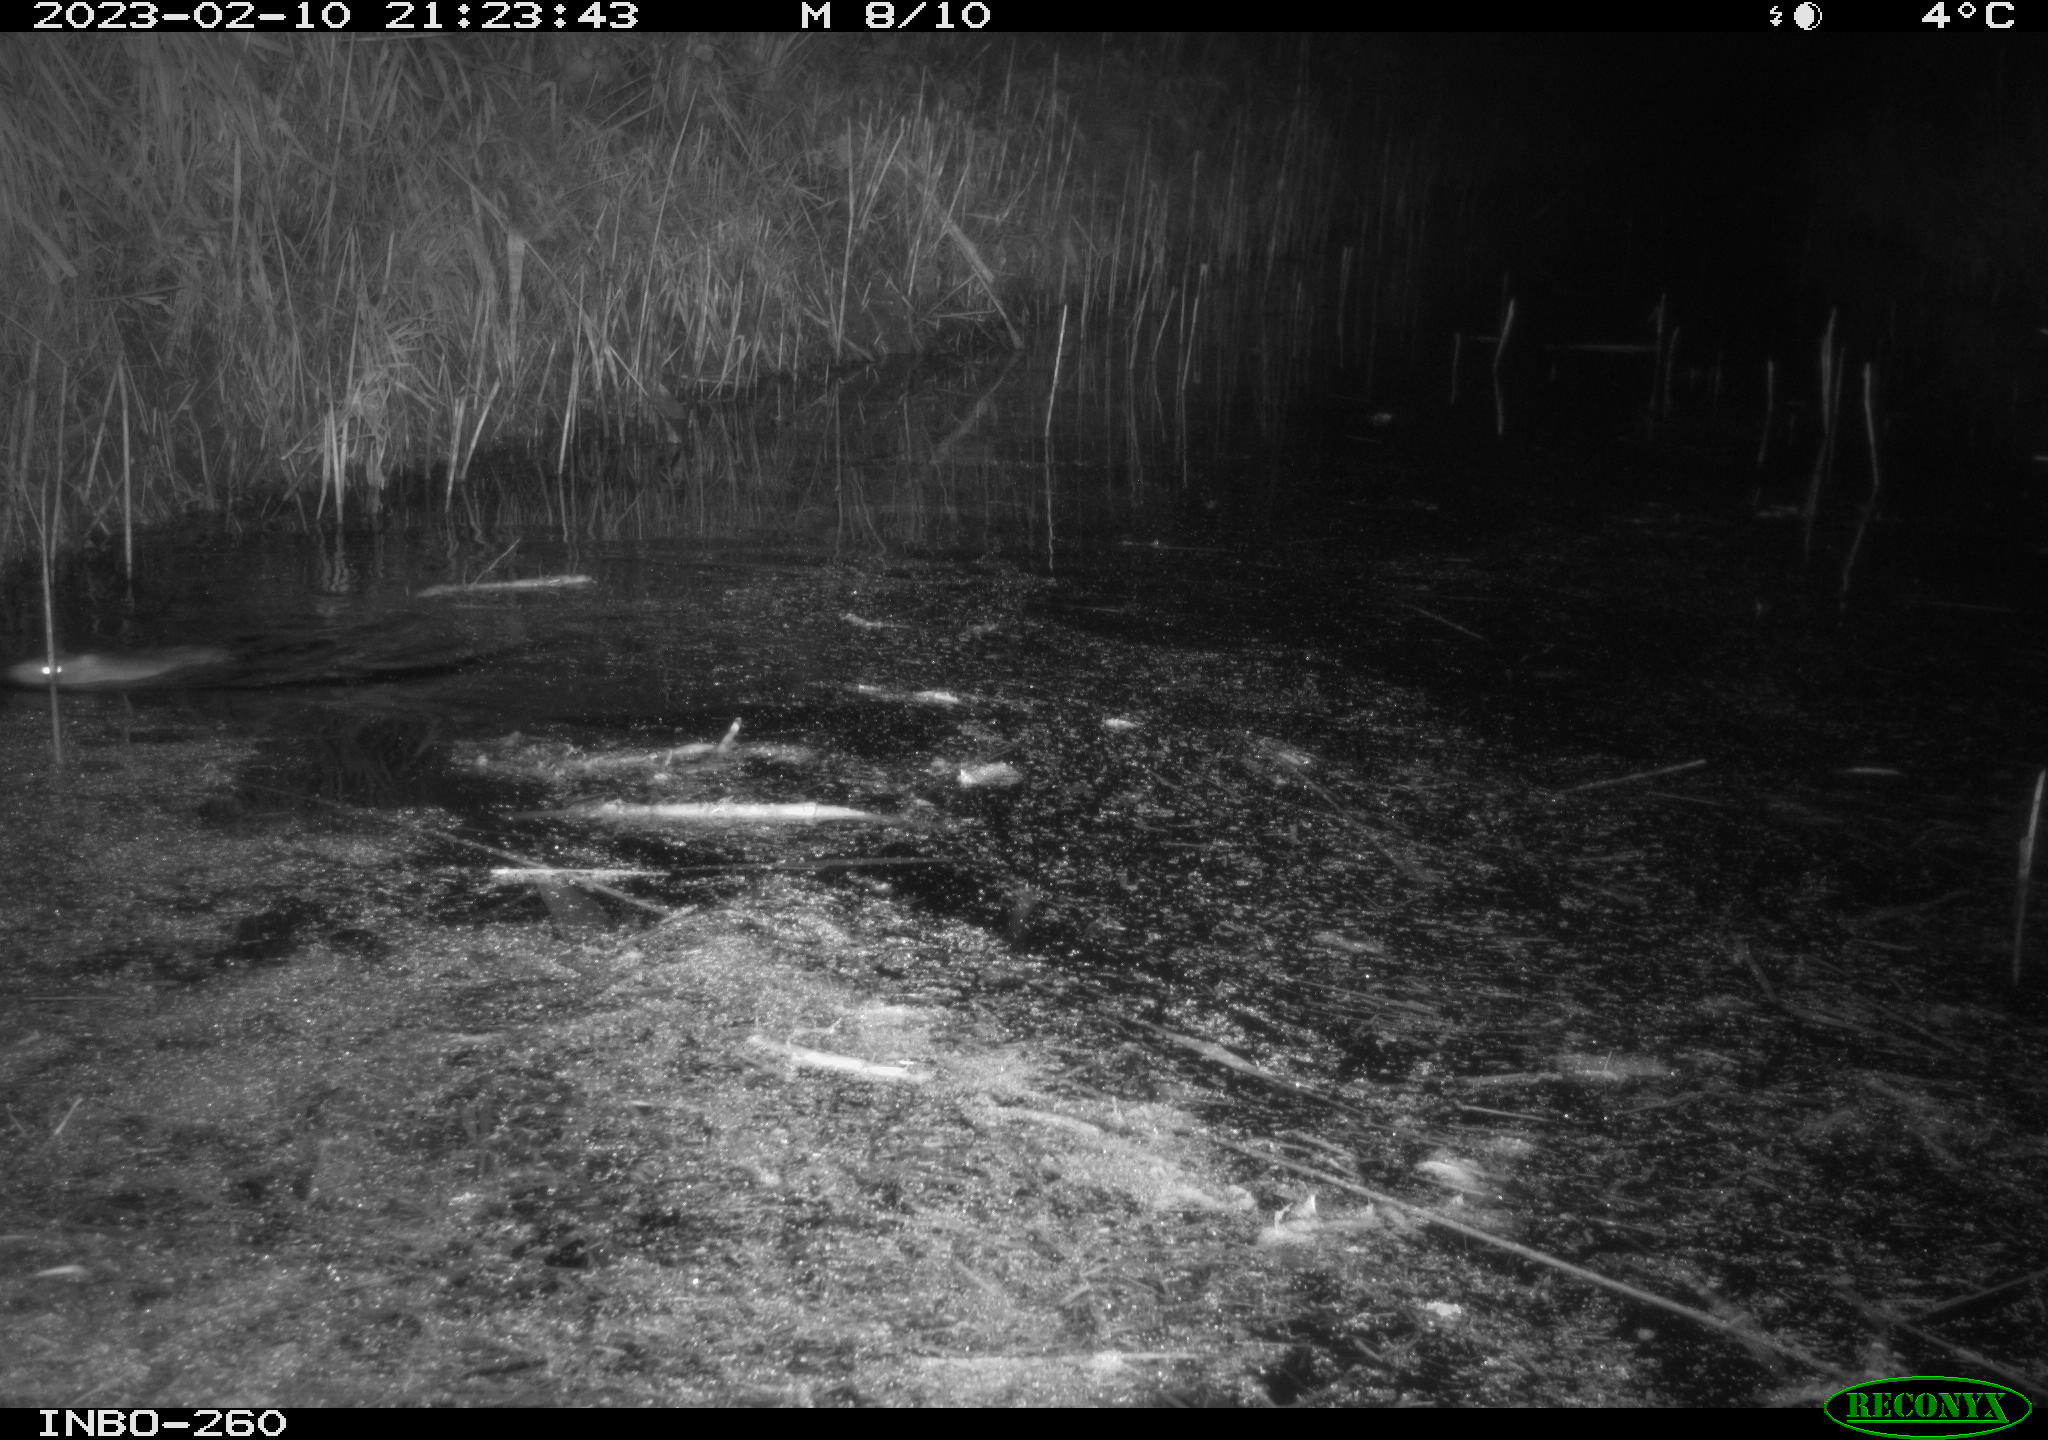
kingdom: Animalia
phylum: Chordata
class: Mammalia
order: Rodentia
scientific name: Rodentia
